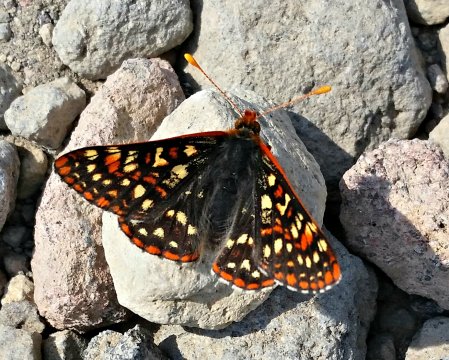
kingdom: Animalia
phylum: Arthropoda
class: Insecta
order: Lepidoptera
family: Nymphalidae
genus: Occidryas
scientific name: Occidryas editha
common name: Edith's Checkerspot
